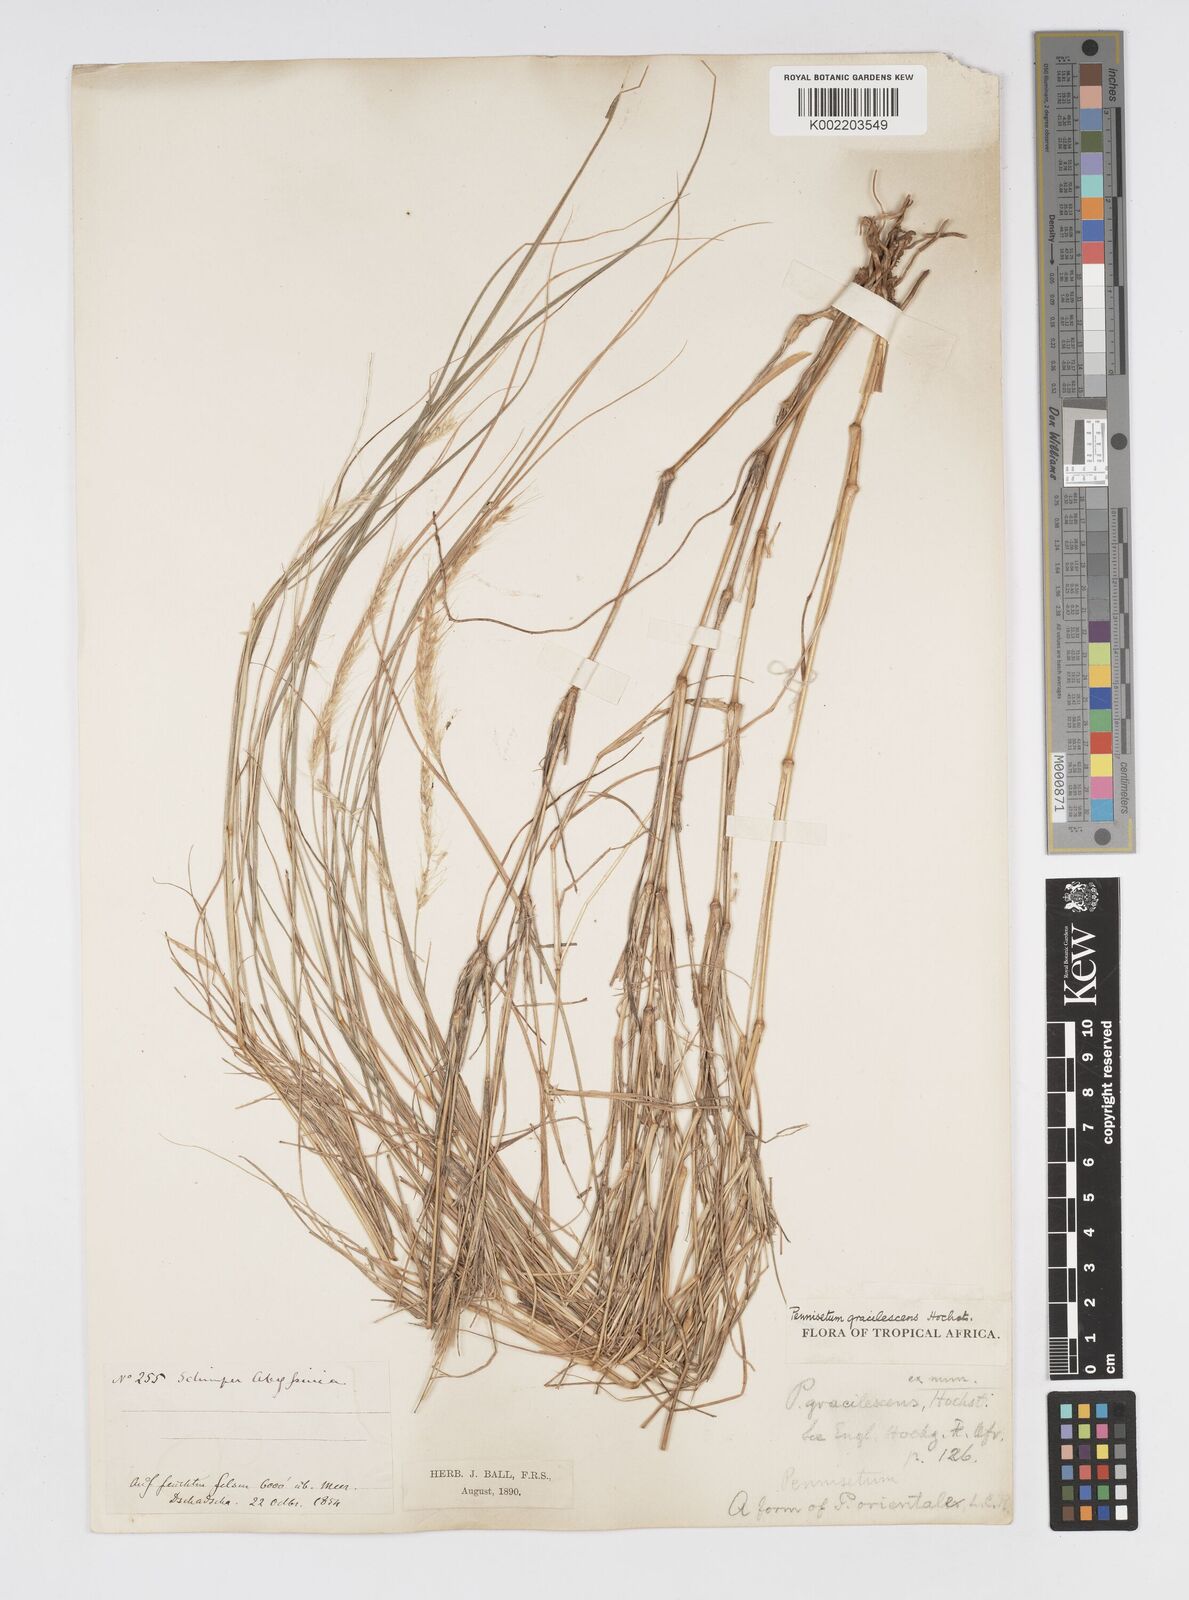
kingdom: Plantae
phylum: Tracheophyta
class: Liliopsida
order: Poales
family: Poaceae
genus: Cenchrus
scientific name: Cenchrus gracilescens
